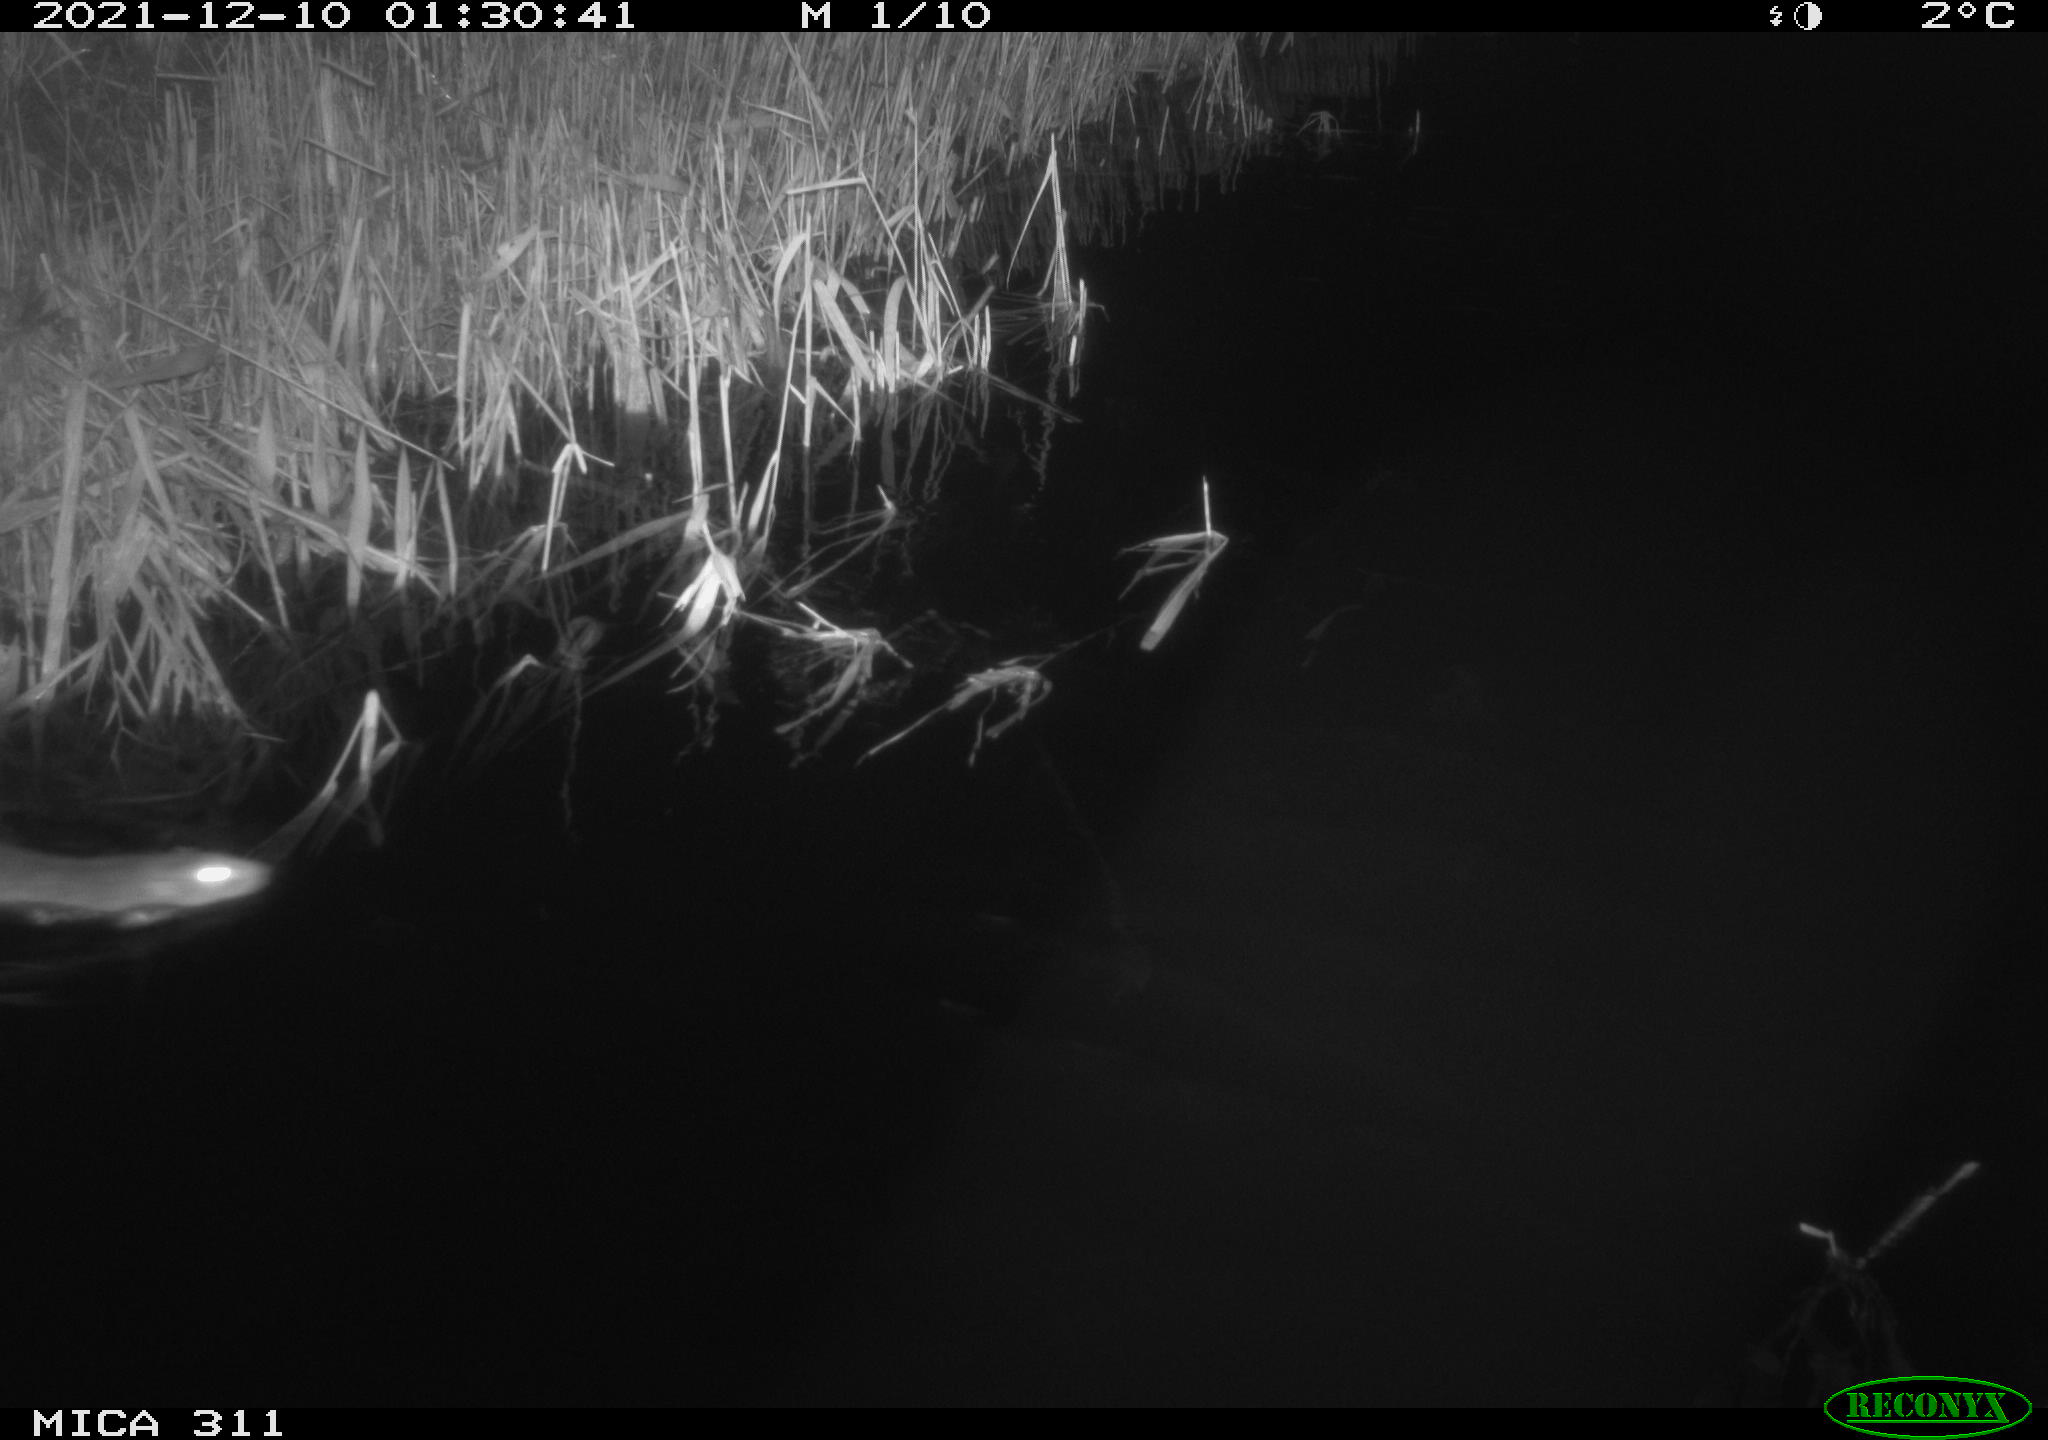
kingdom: Animalia
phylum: Chordata
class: Mammalia
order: Rodentia
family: Muridae
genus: Rattus
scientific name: Rattus norvegicus
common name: Brown rat
